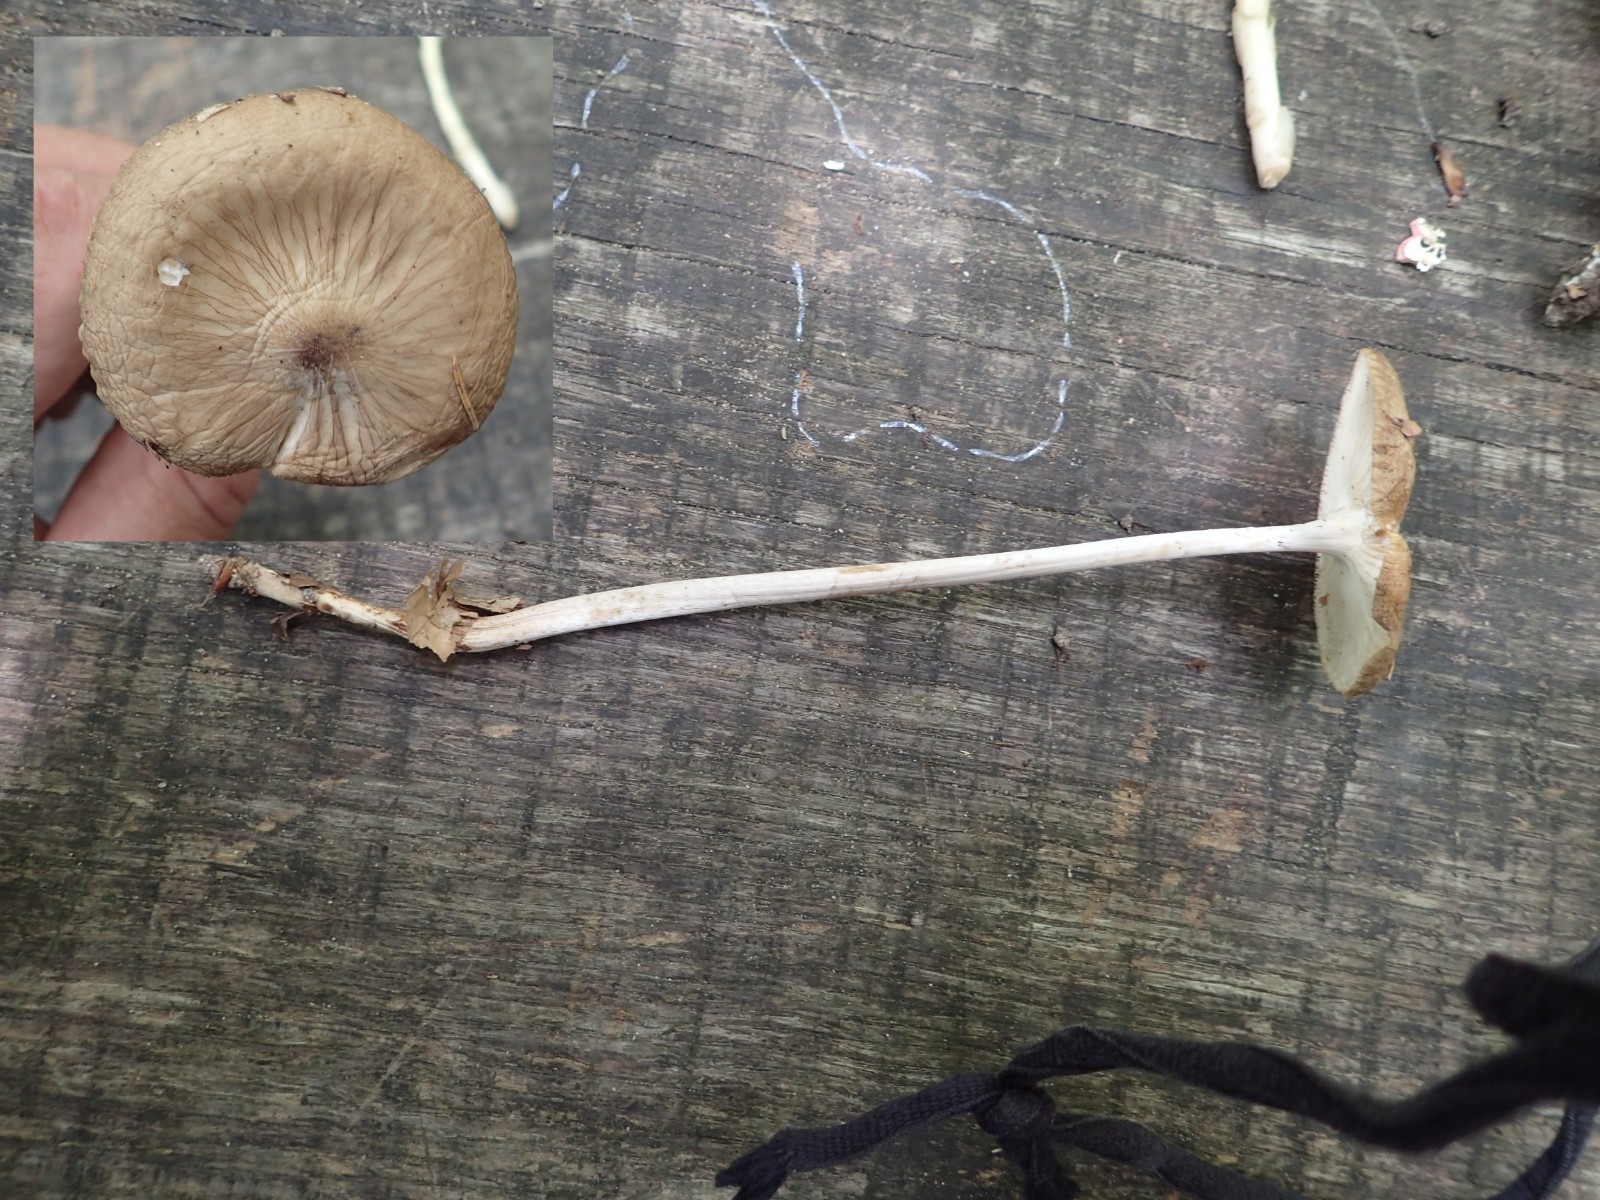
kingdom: Fungi
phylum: Basidiomycota
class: Agaricomycetes
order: Agaricales
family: Physalacriaceae
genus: Hymenopellis
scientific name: Hymenopellis radicata
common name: almindelig pælerodshat
